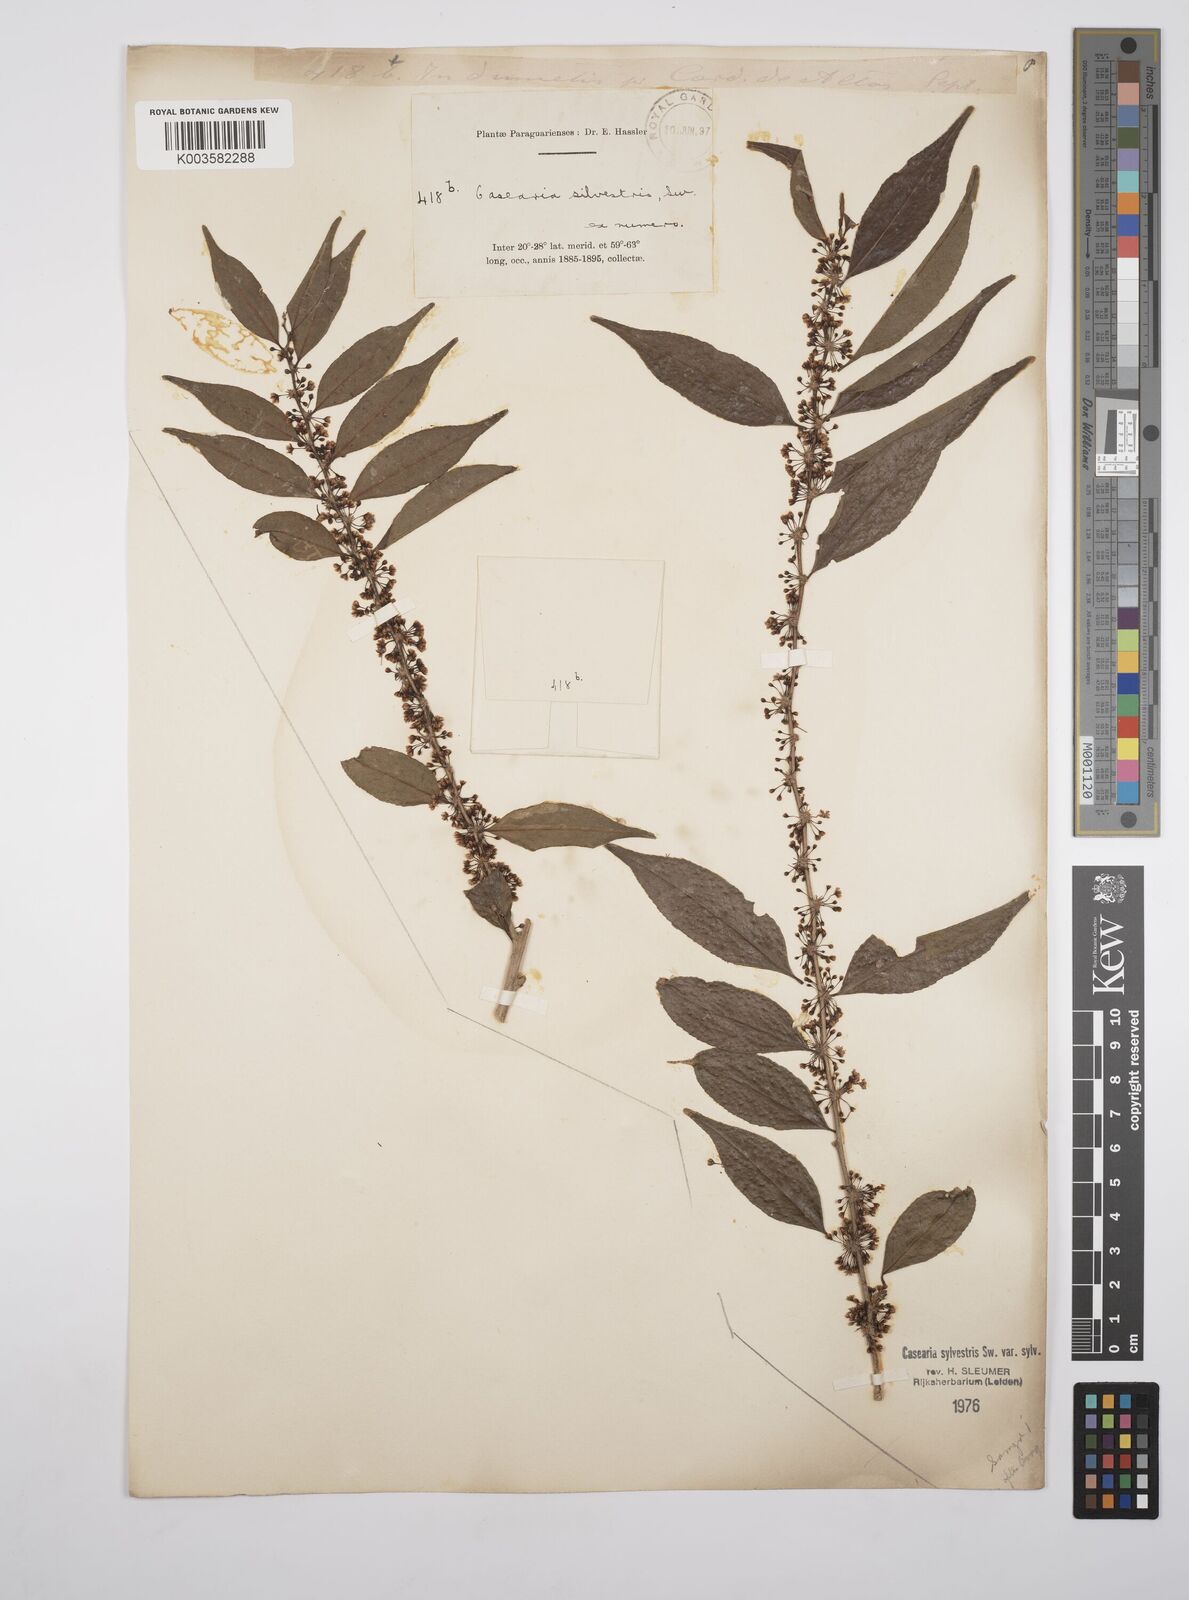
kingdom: Plantae
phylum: Tracheophyta
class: Magnoliopsida
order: Malpighiales
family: Salicaceae
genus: Casearia
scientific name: Casearia sylvestris
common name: Wild sage
